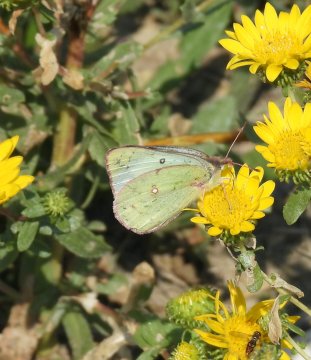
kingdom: Animalia
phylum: Arthropoda
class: Insecta
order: Lepidoptera
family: Pieridae
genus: Colias
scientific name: Colias philodice
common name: Clouded Sulphur
